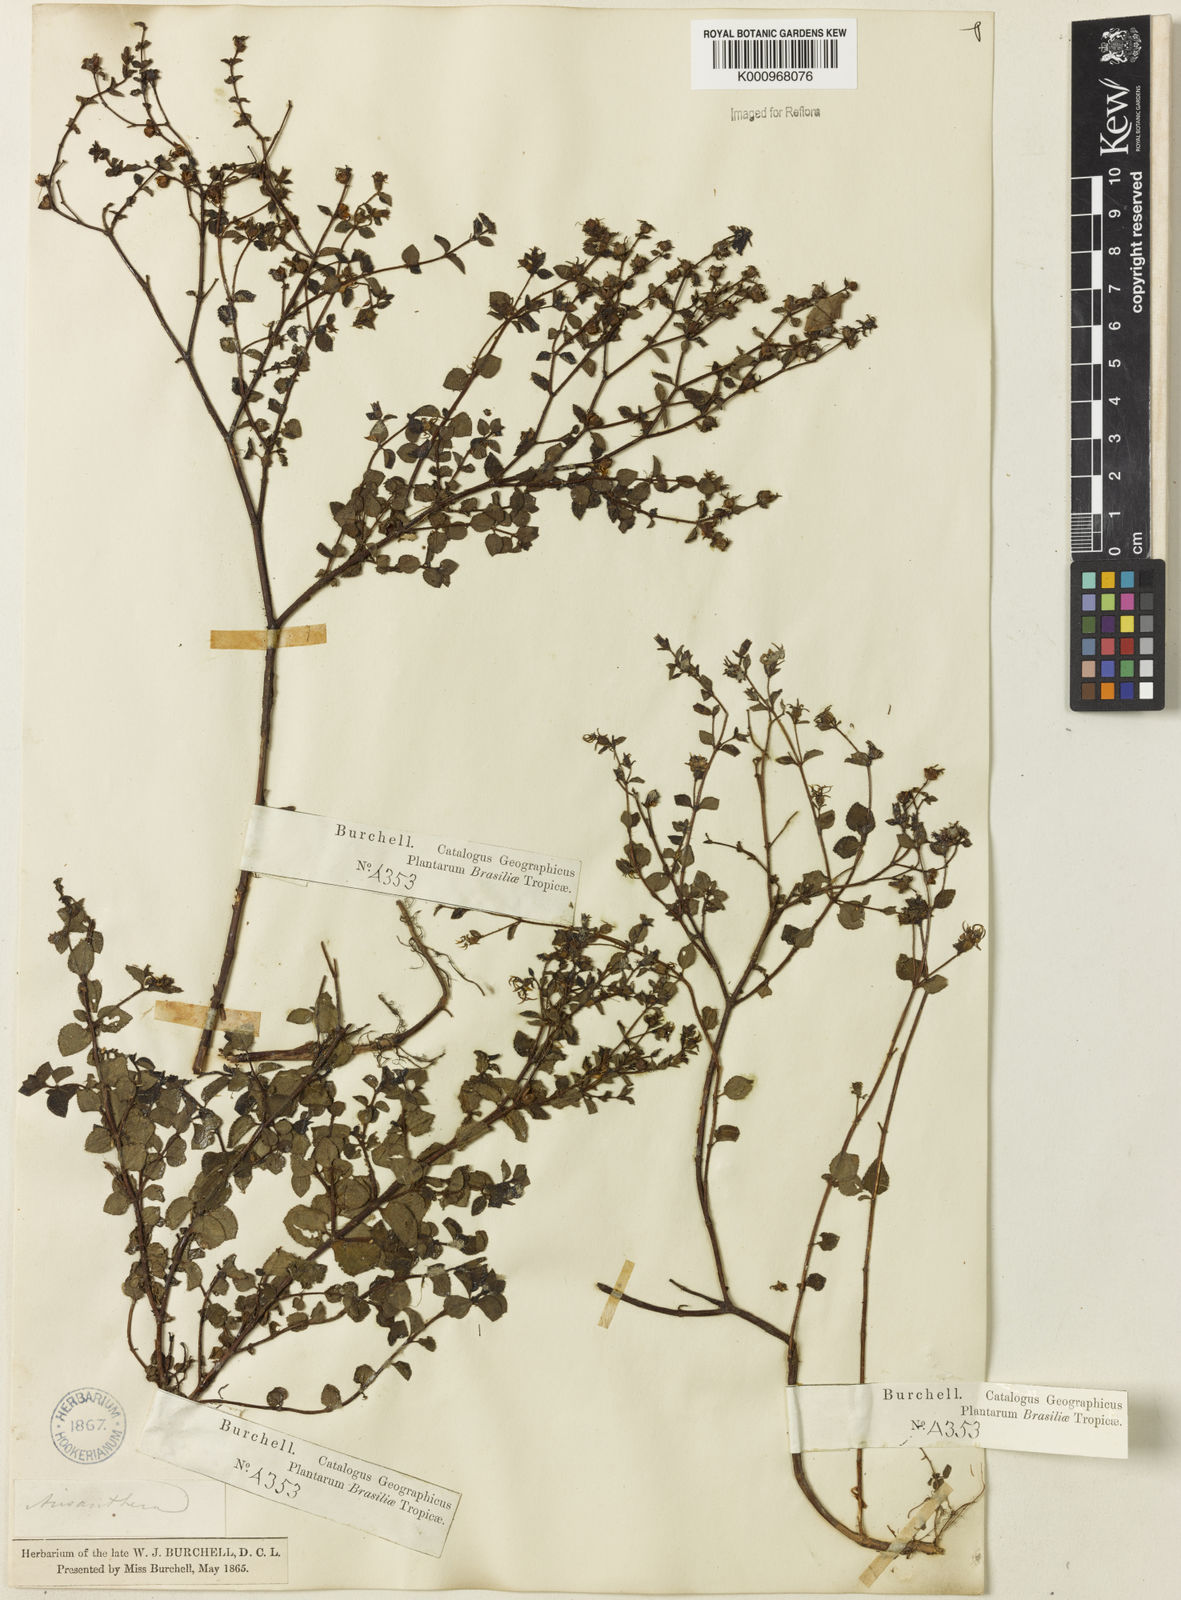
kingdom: Plantae
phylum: Tracheophyta
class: Magnoliopsida
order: Myrtales
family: Melastomataceae
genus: Acisanthera
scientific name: Acisanthera variabilis
